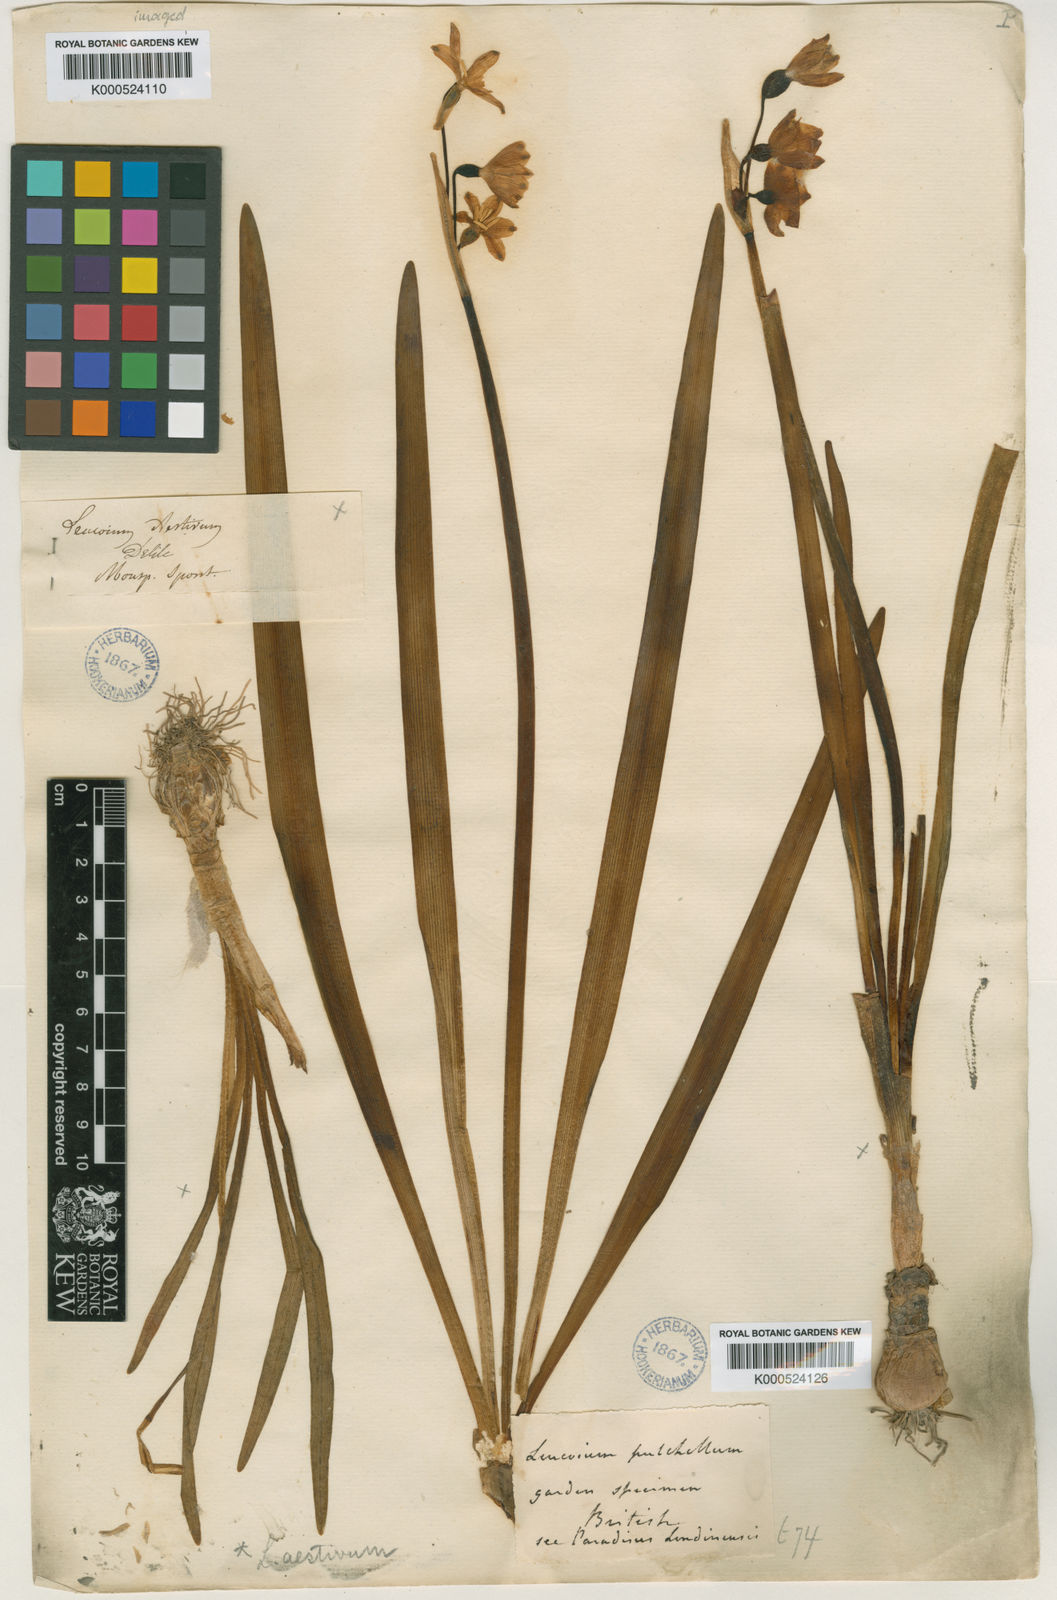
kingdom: Plantae
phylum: Tracheophyta
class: Liliopsida
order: Asparagales
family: Amaryllidaceae
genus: Leucojum
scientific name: Leucojum aestivum
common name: Summer snowflake
